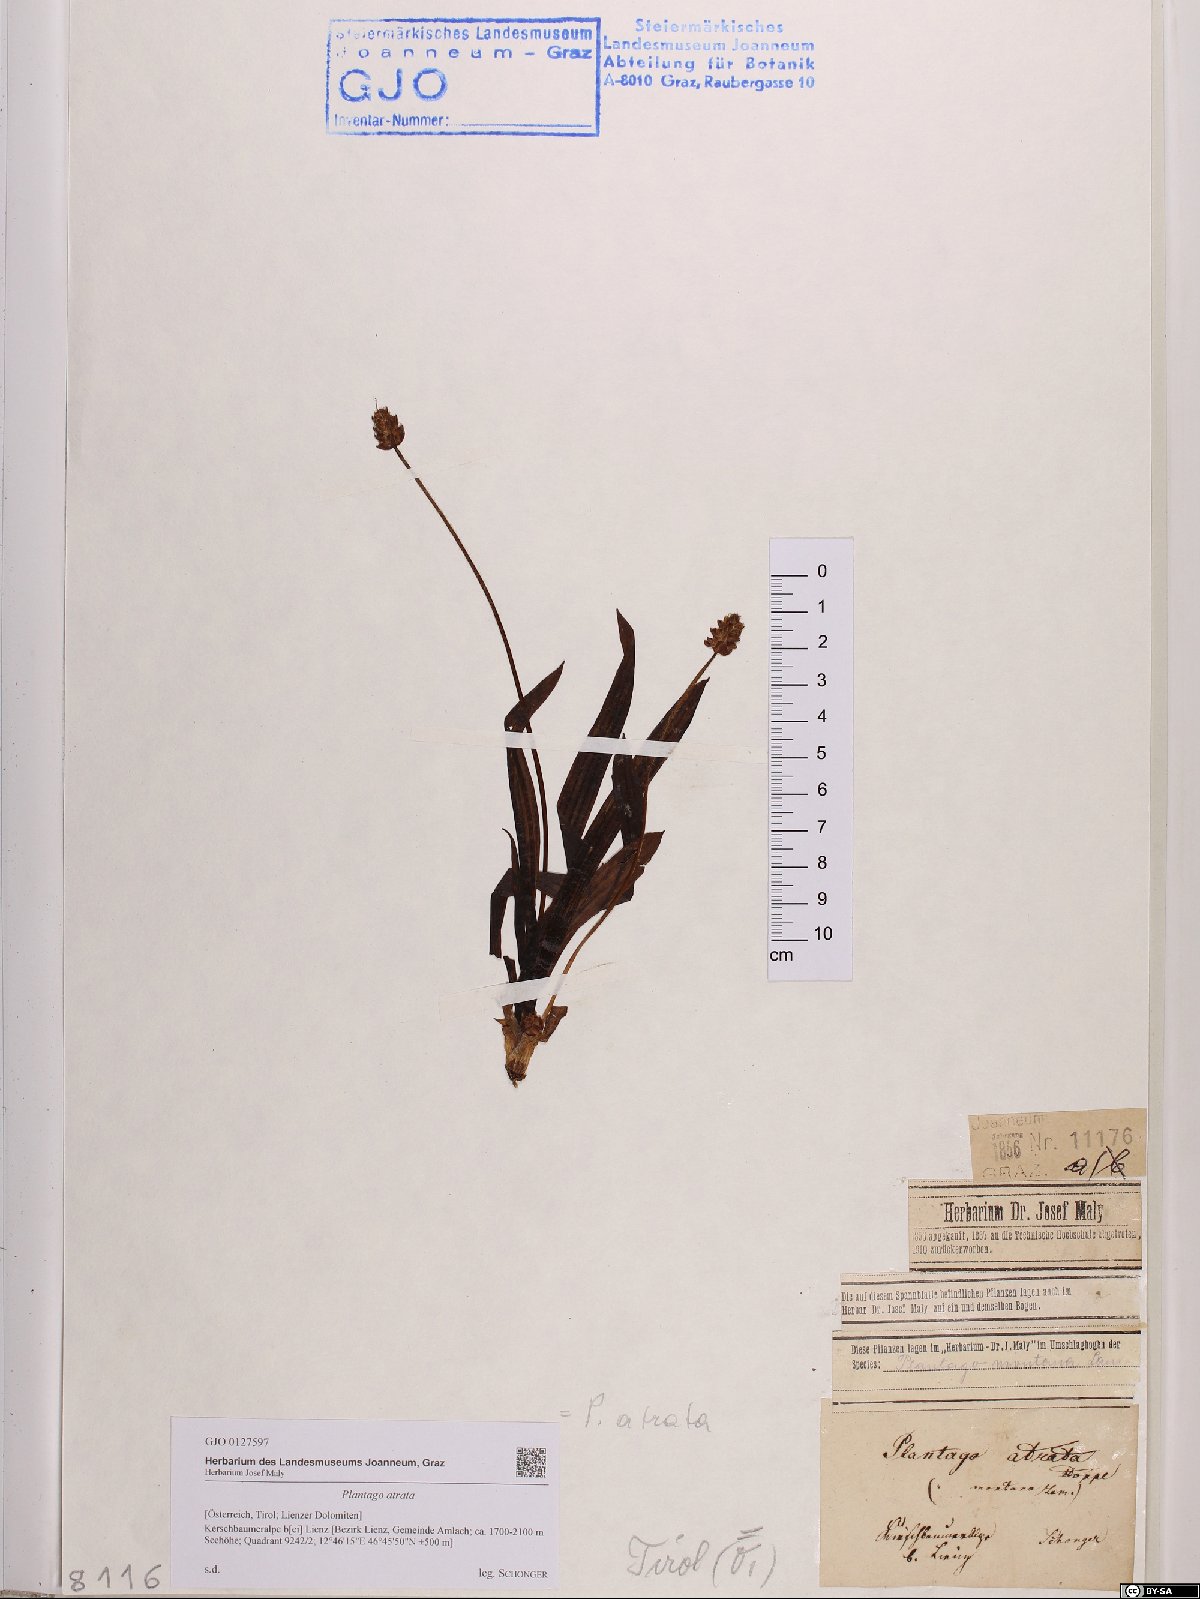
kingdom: Plantae
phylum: Tracheophyta
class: Magnoliopsida
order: Lamiales
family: Plantaginaceae
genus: Plantago
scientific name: Plantago atrata
